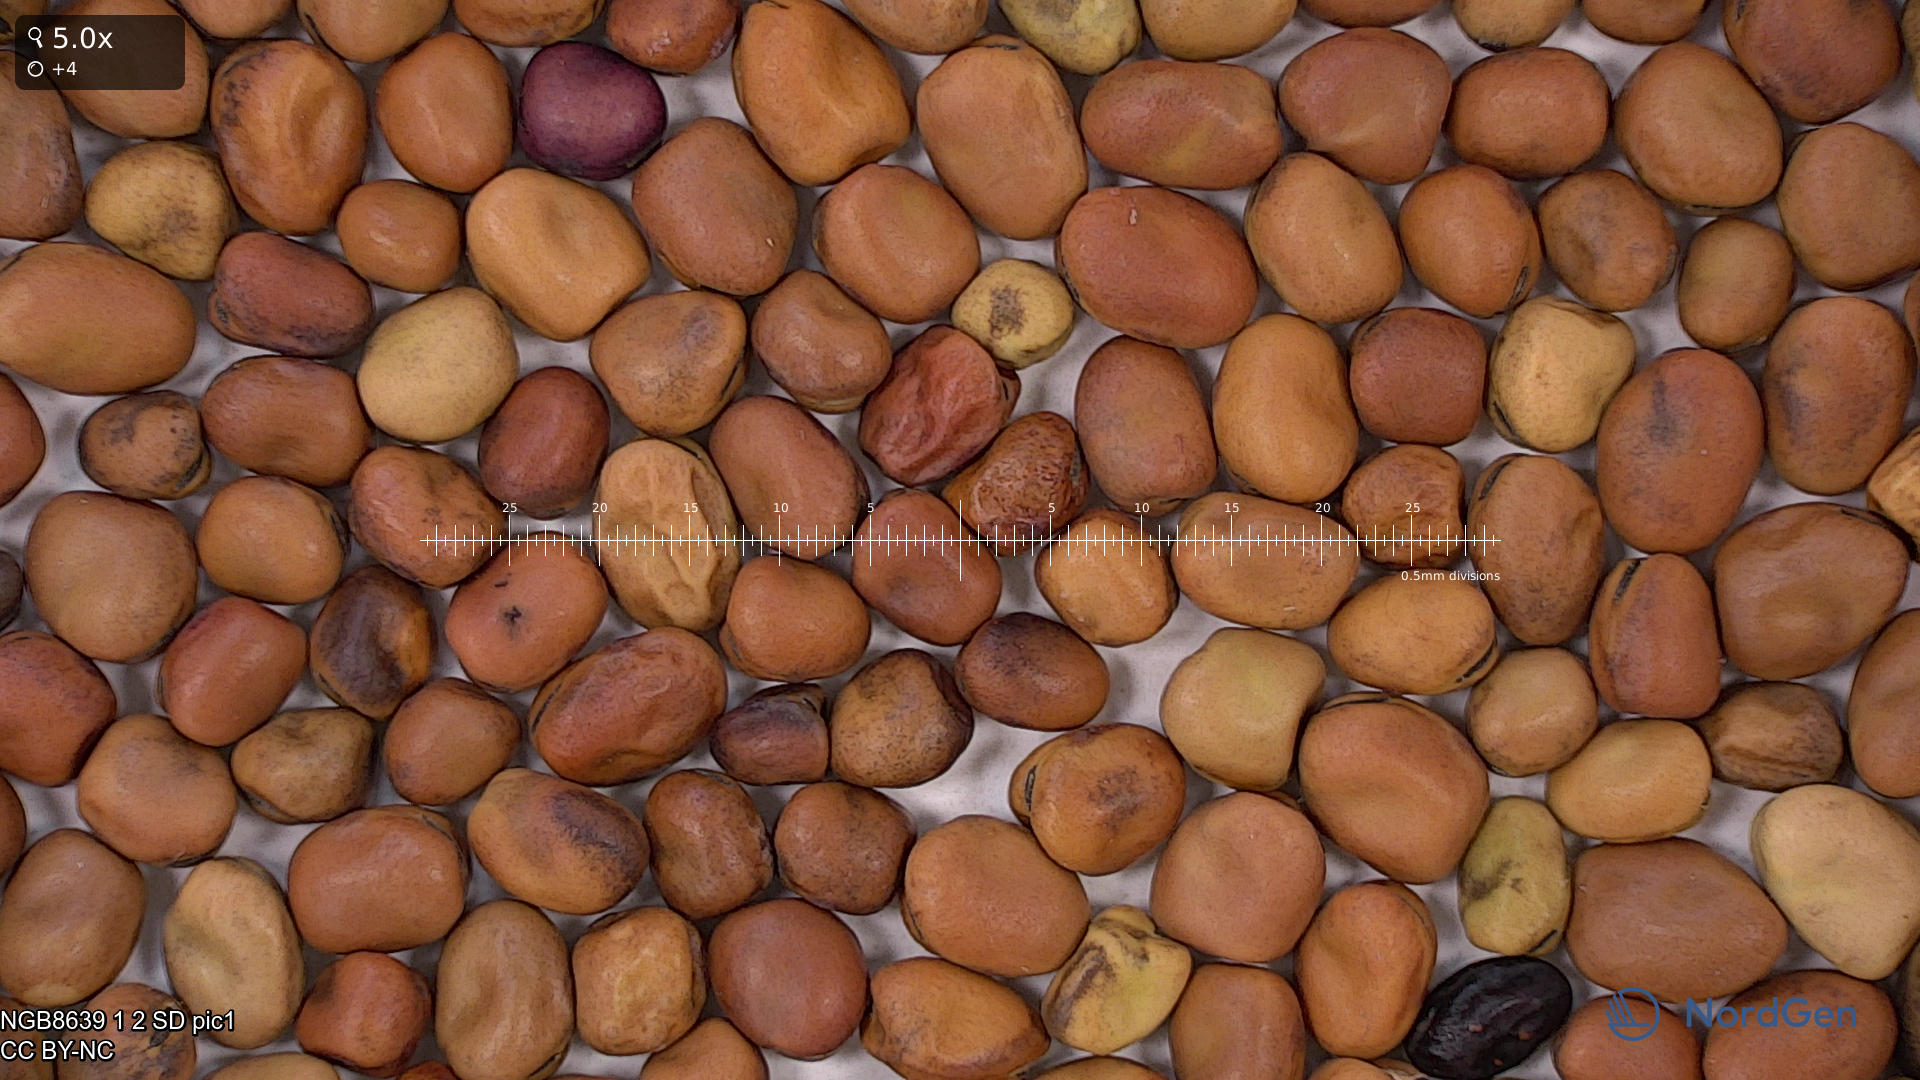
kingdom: Plantae
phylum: Tracheophyta
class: Magnoliopsida
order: Fabales
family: Fabaceae
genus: Vicia
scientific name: Vicia faba
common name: Broad bean
